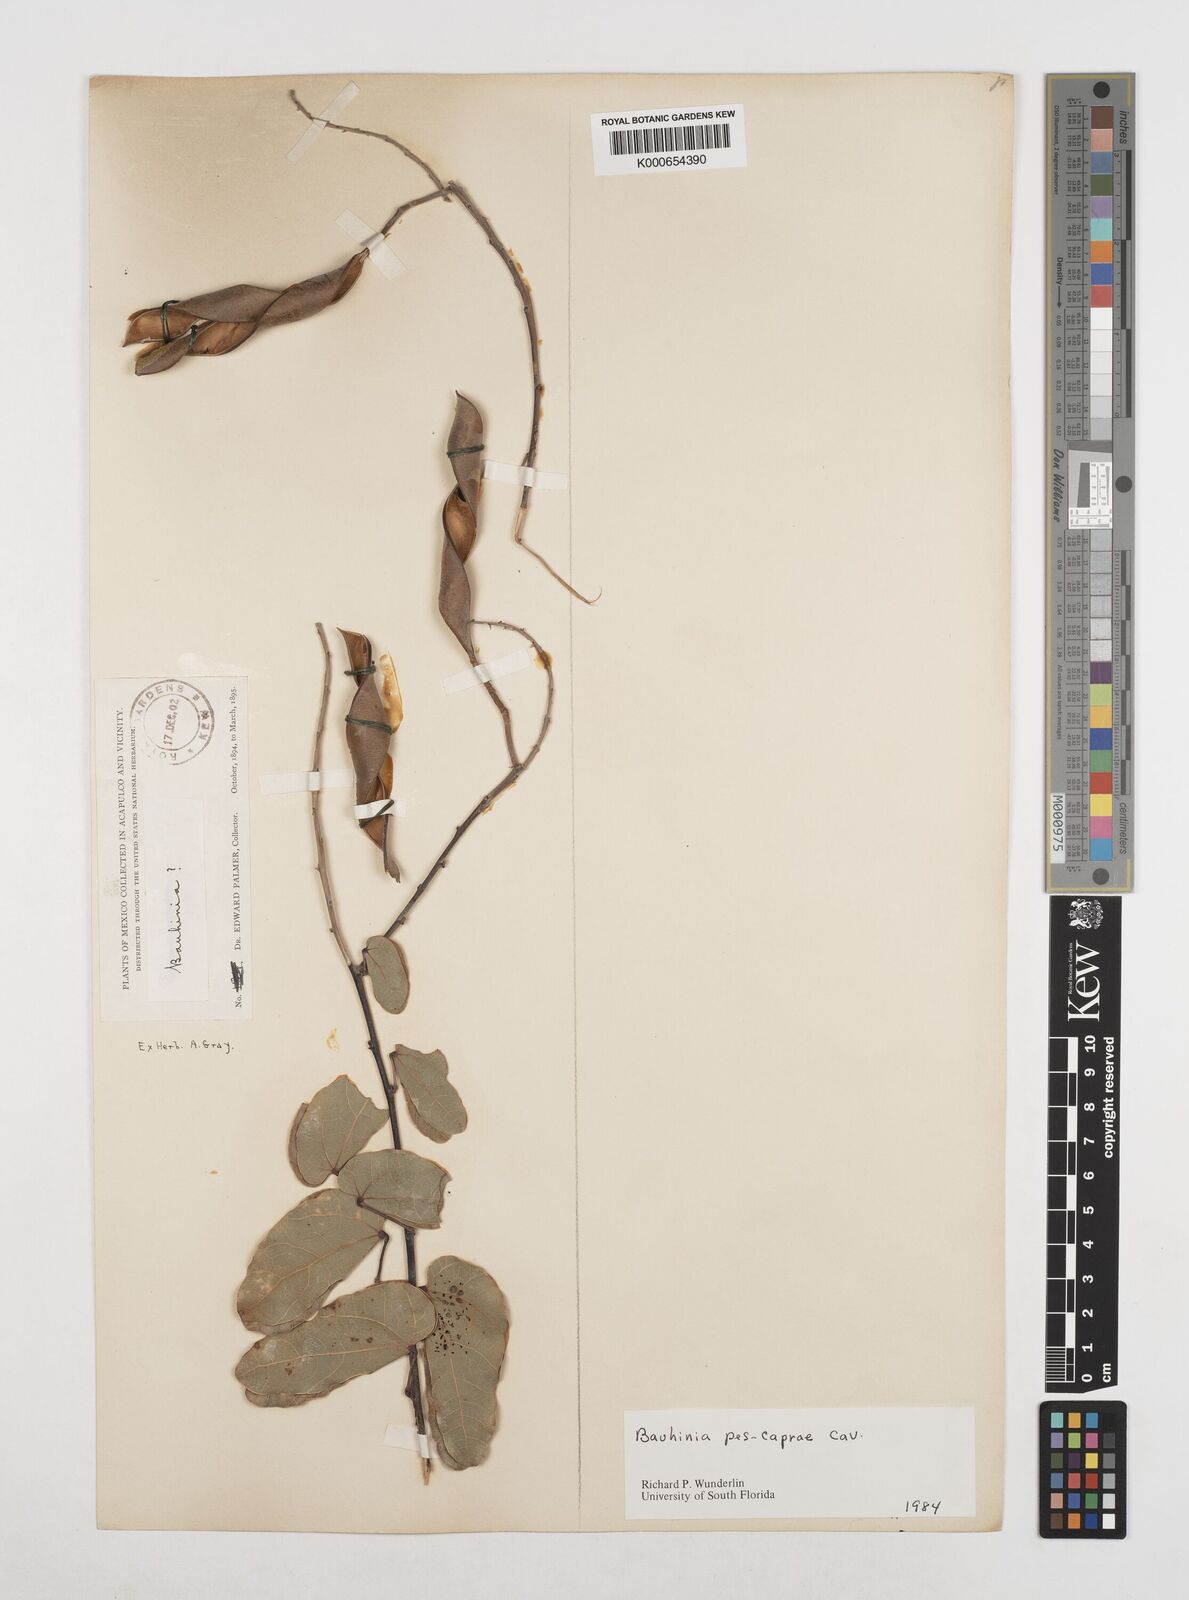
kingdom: Plantae
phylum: Tracheophyta
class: Magnoliopsida
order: Fabales
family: Fabaceae
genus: Bauhinia
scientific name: Bauhinia pes-caprae
